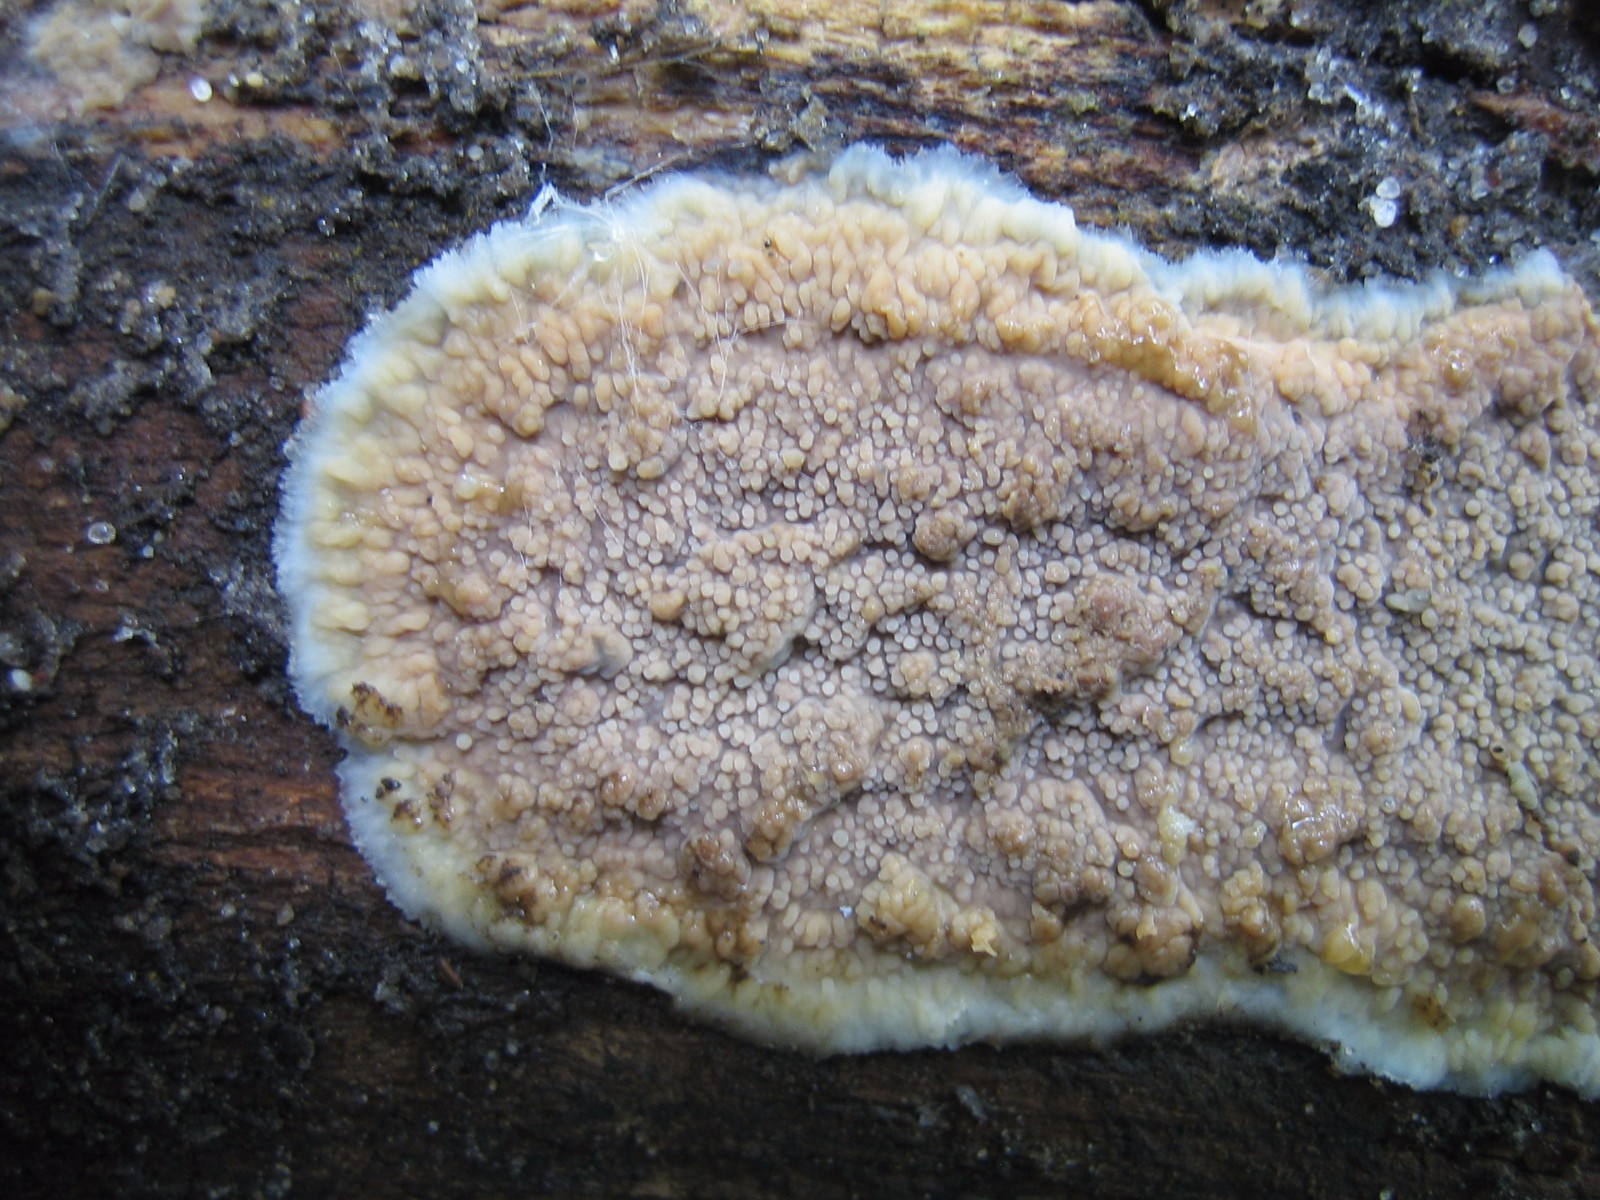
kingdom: Fungi
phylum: Basidiomycota
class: Agaricomycetes
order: Polyporales
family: Meruliaceae
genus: Phlebia
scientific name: Phlebia rufa
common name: ege-åresvamp
